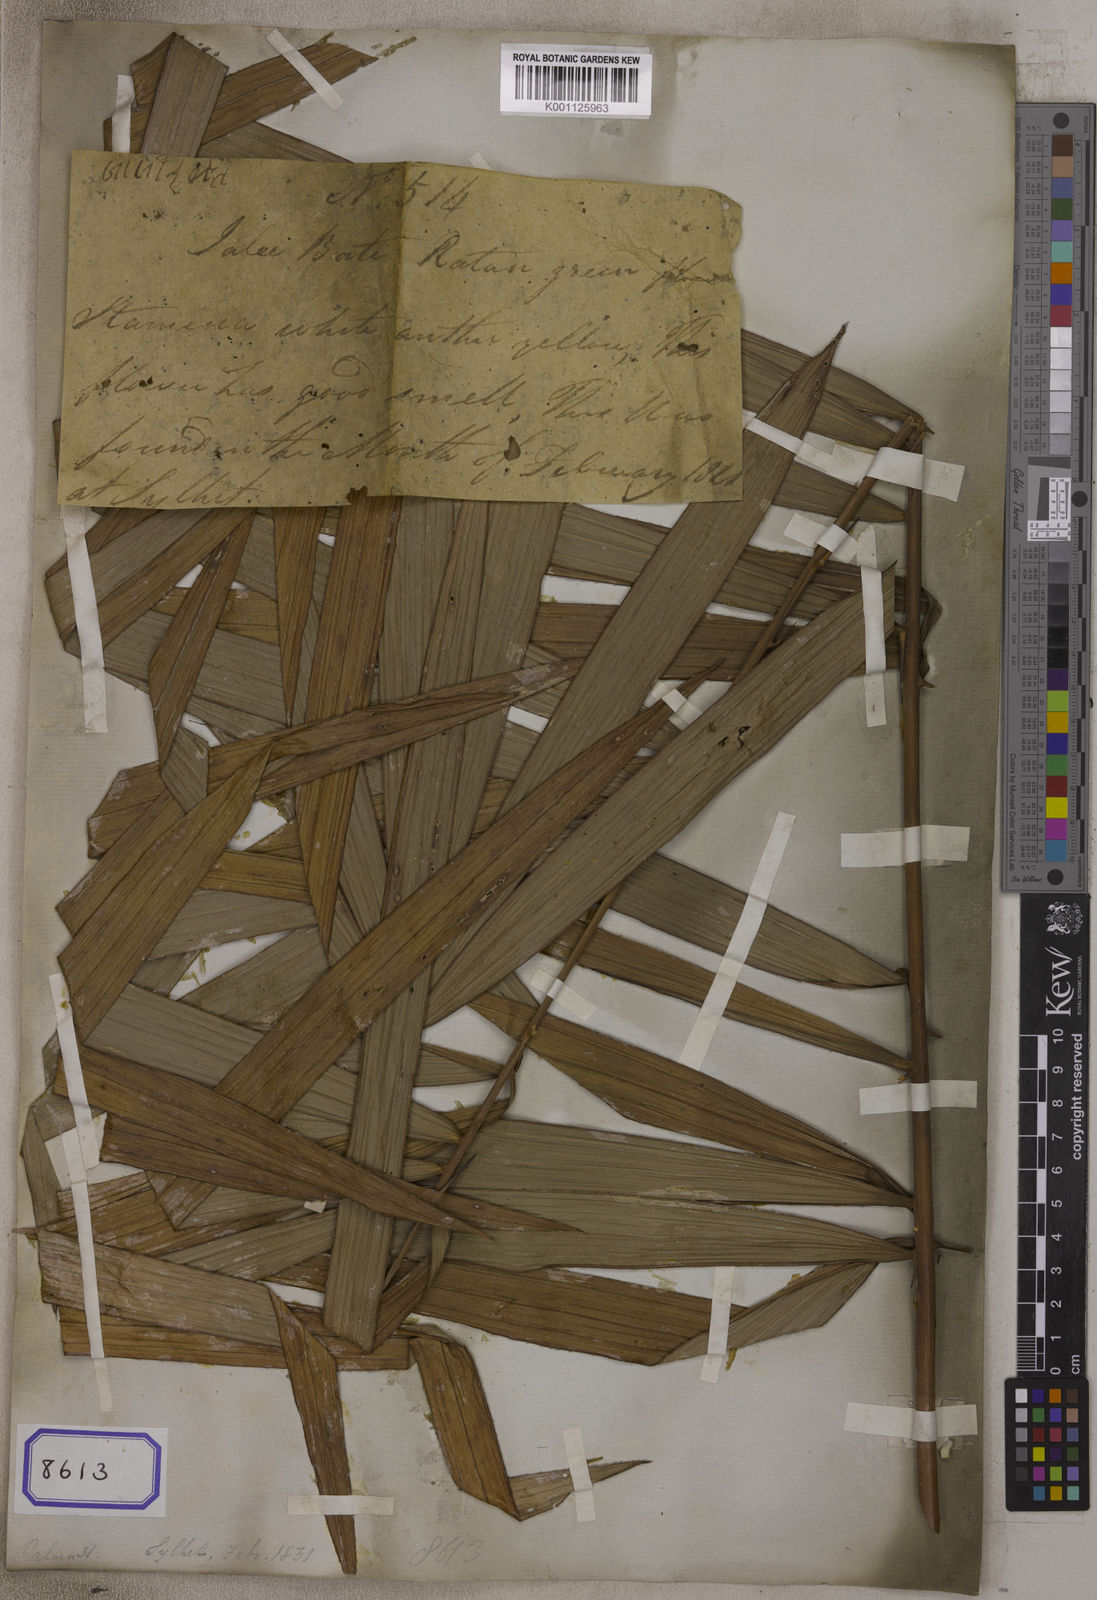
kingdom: Plantae
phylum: Tracheophyta
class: Liliopsida
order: Arecales
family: Arecaceae
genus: Calamus
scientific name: Calamus
